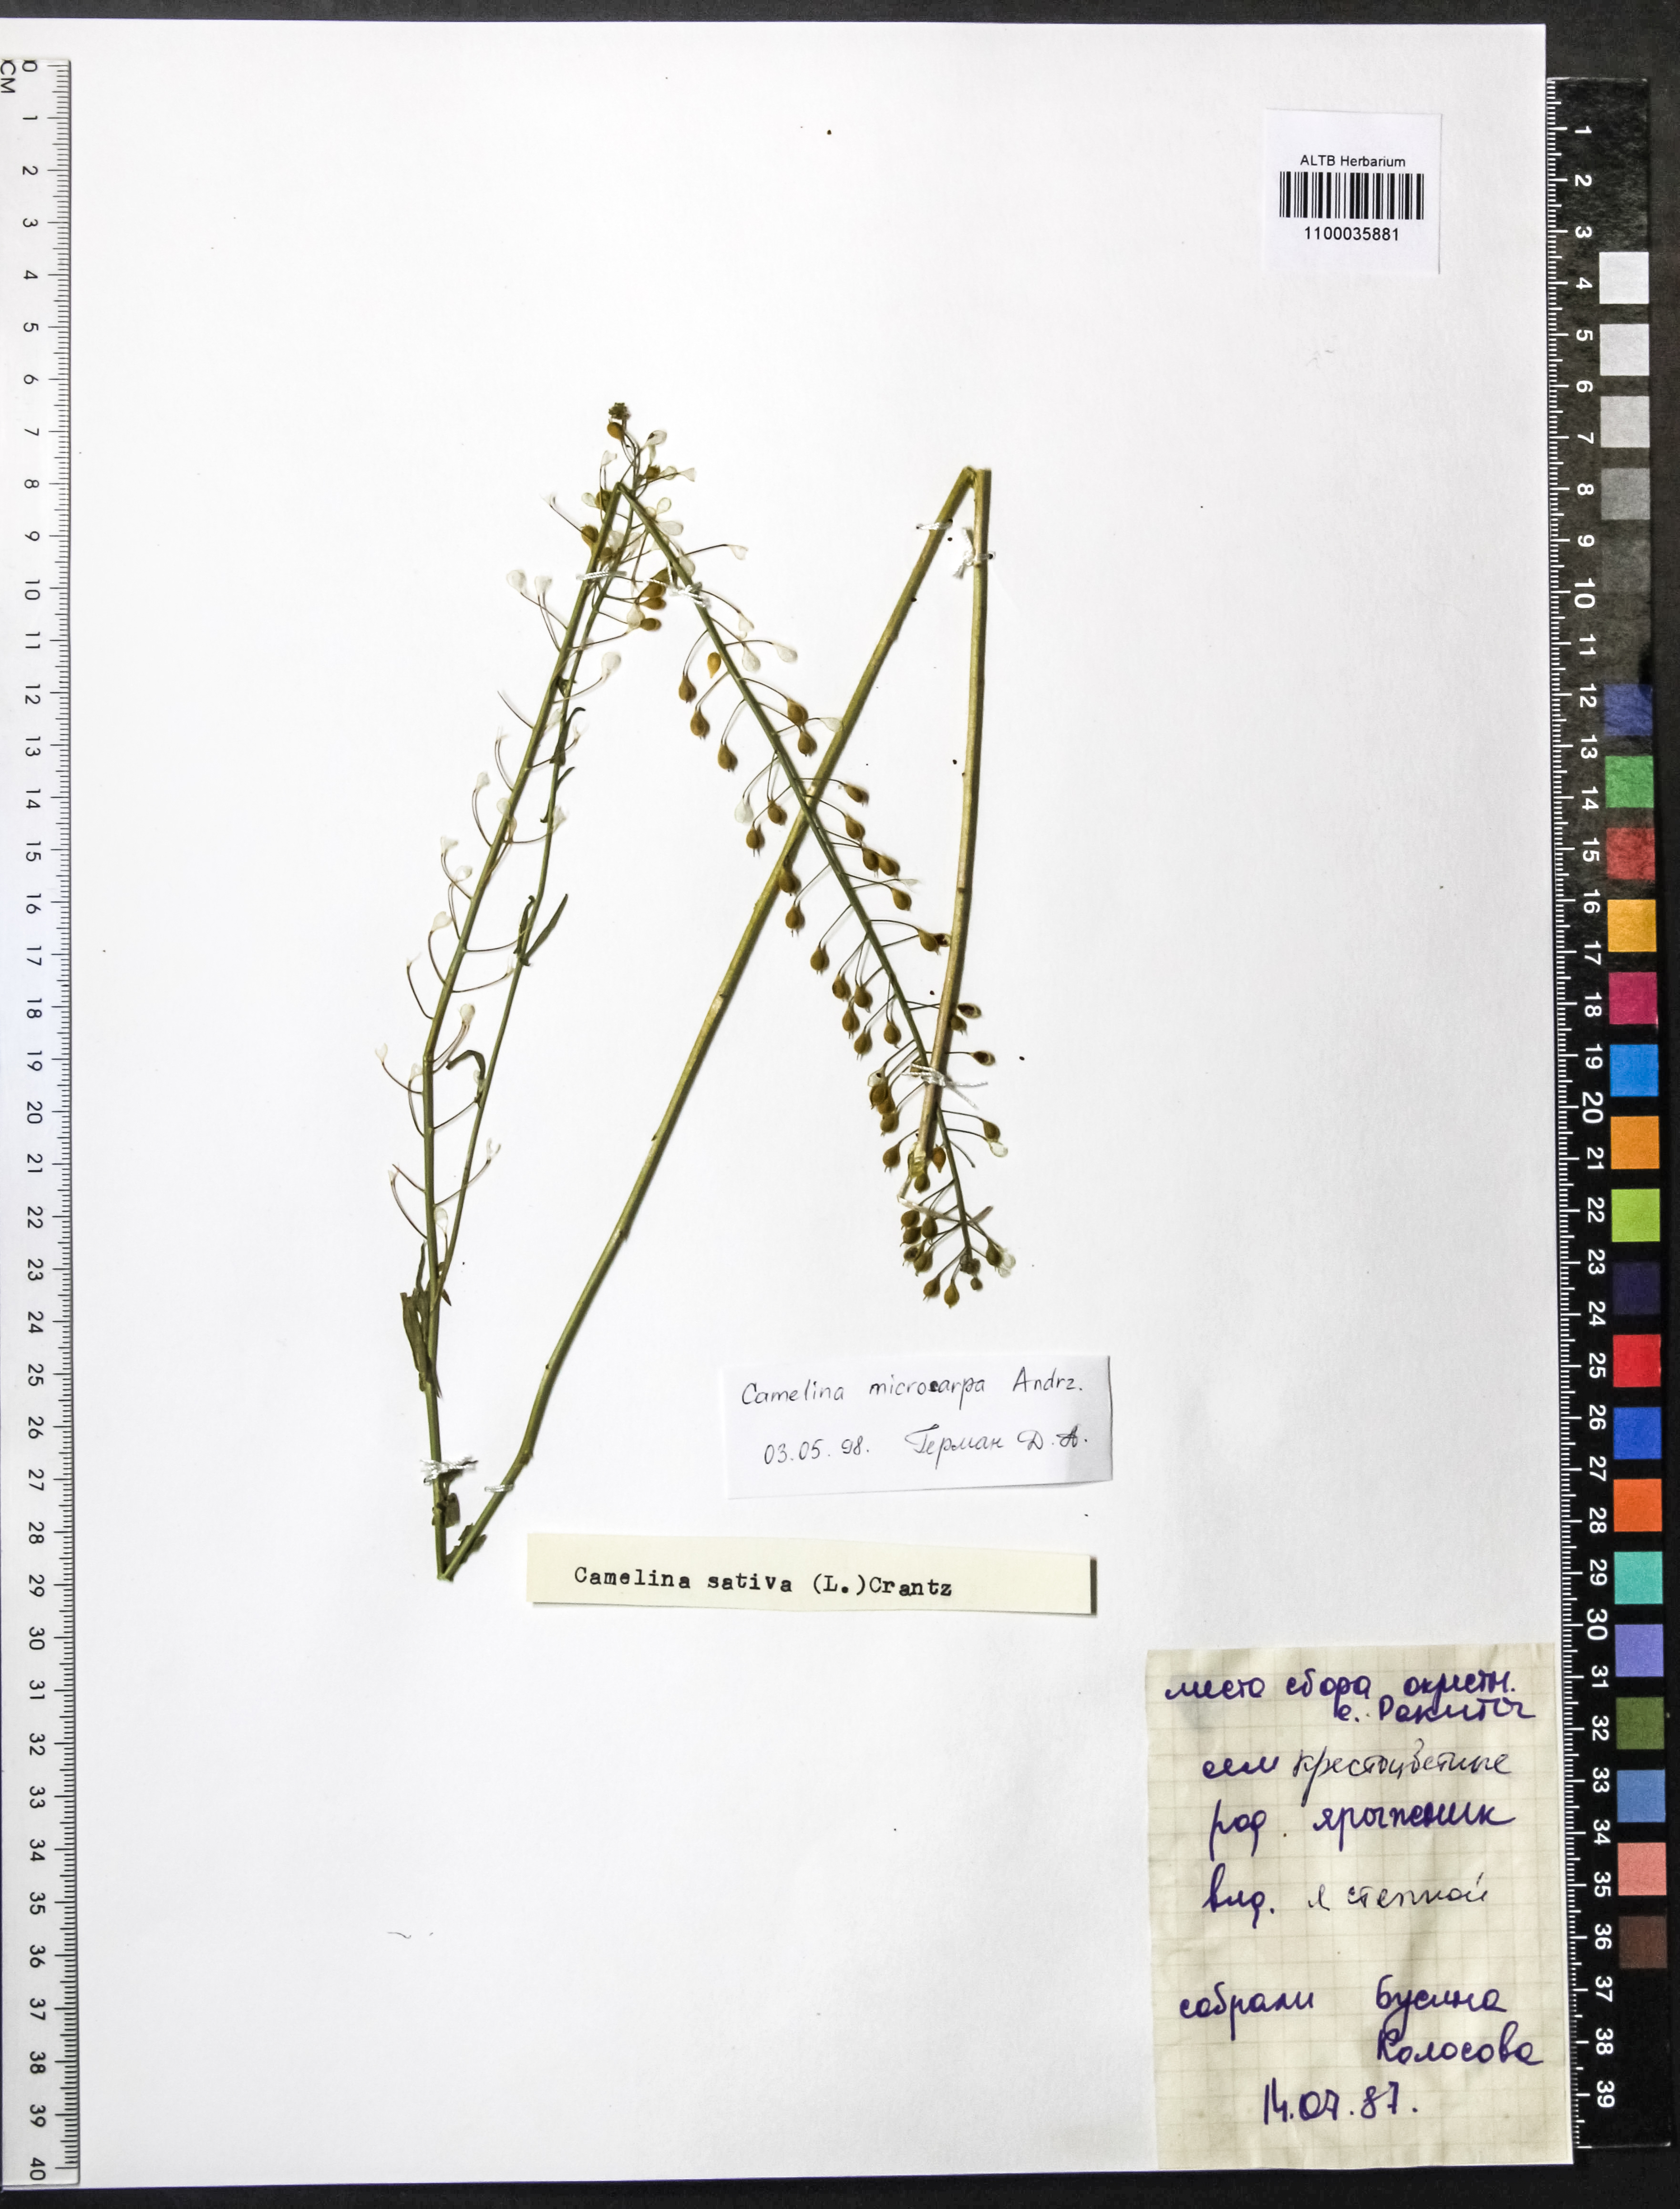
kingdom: Plantae
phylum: Tracheophyta
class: Magnoliopsida
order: Brassicales
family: Brassicaceae
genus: Camelina
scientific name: Camelina microcarpa
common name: Lesser gold-of-pleasure
